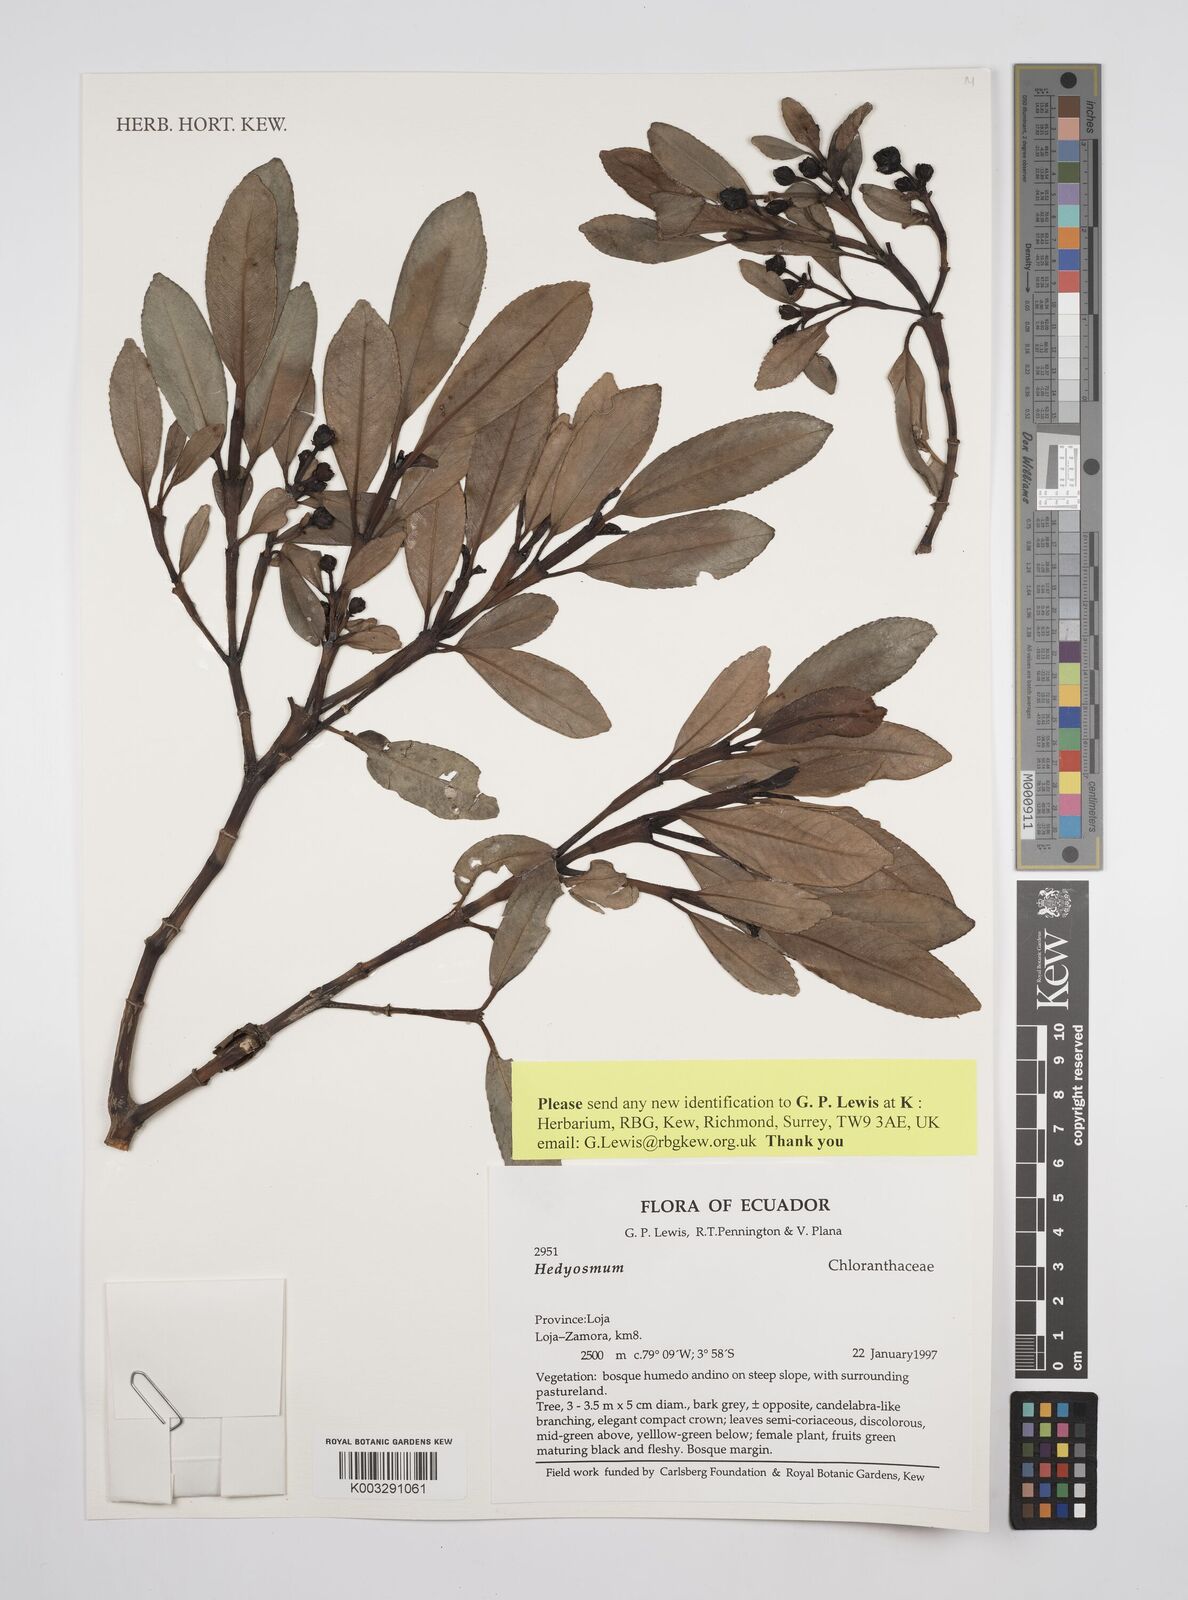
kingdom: Plantae
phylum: Tracheophyta
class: Magnoliopsida
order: Chloranthales
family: Chloranthaceae
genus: Hedyosmum
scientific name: Hedyosmum
